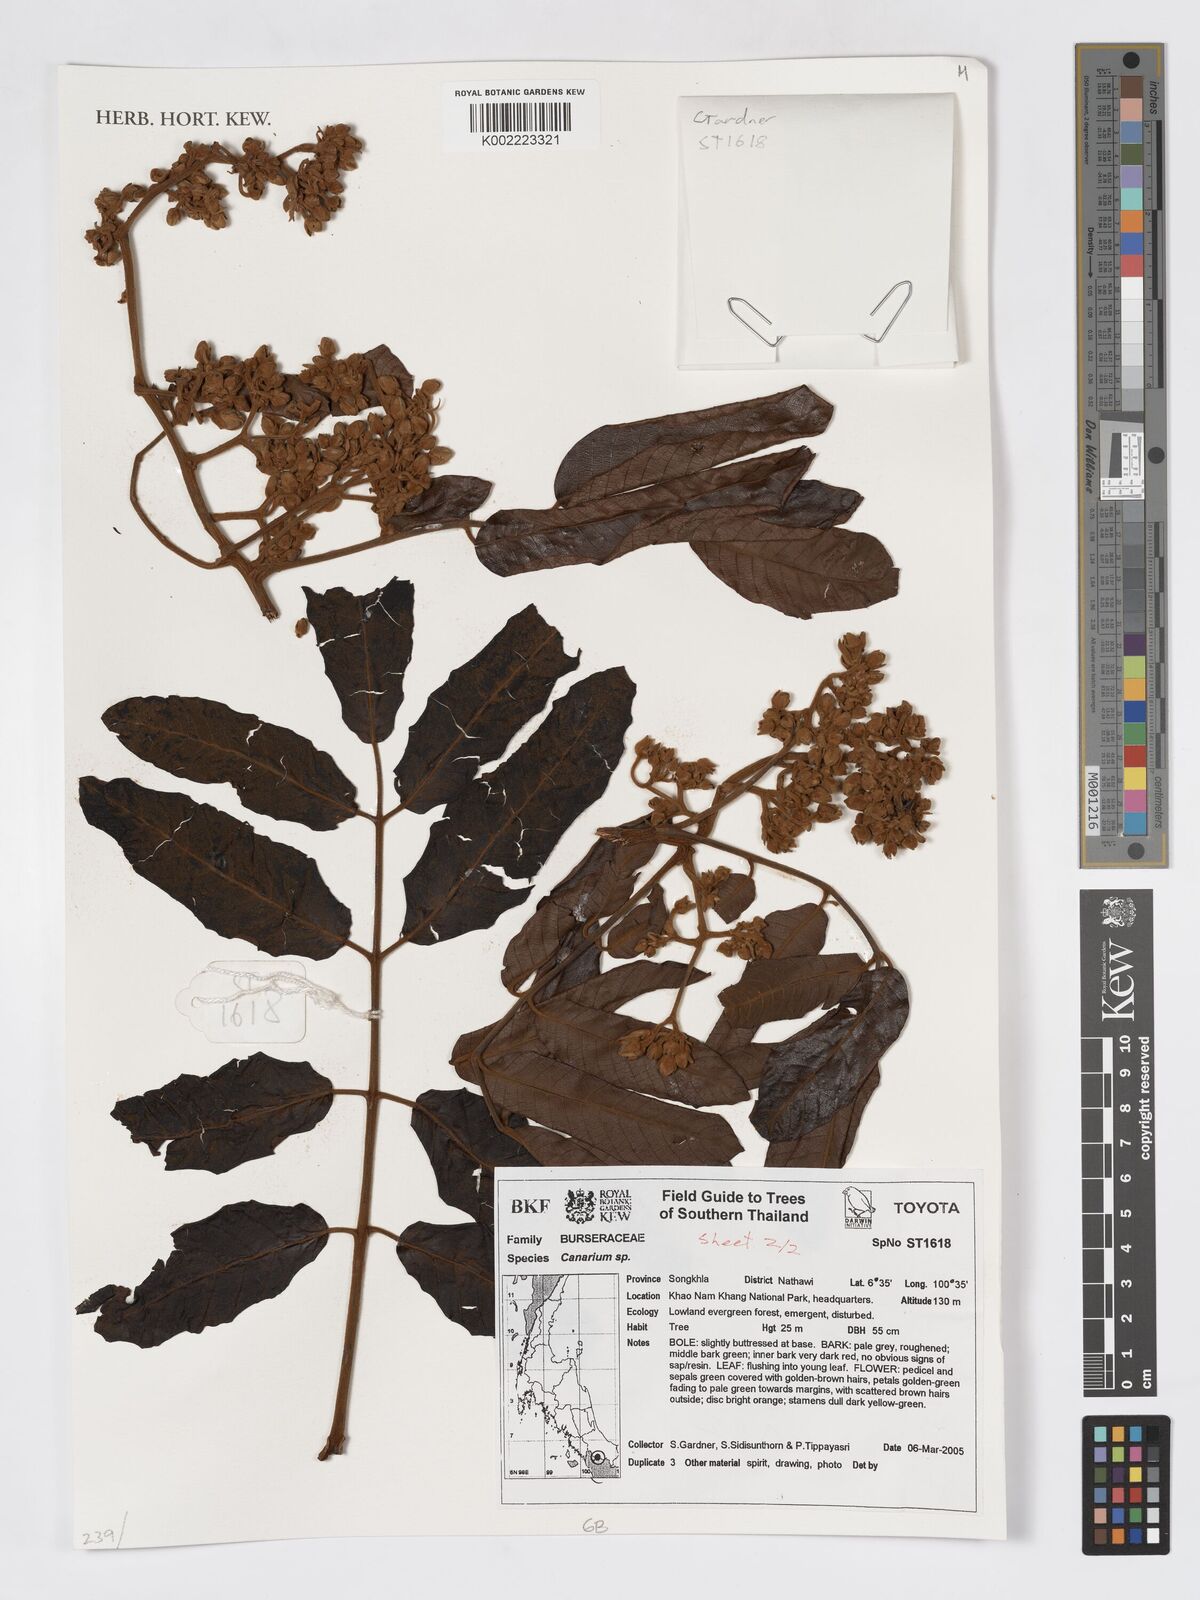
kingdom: Plantae
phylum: Tracheophyta
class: Magnoliopsida
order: Sapindales
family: Burseraceae
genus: Canarium
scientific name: Canarium
